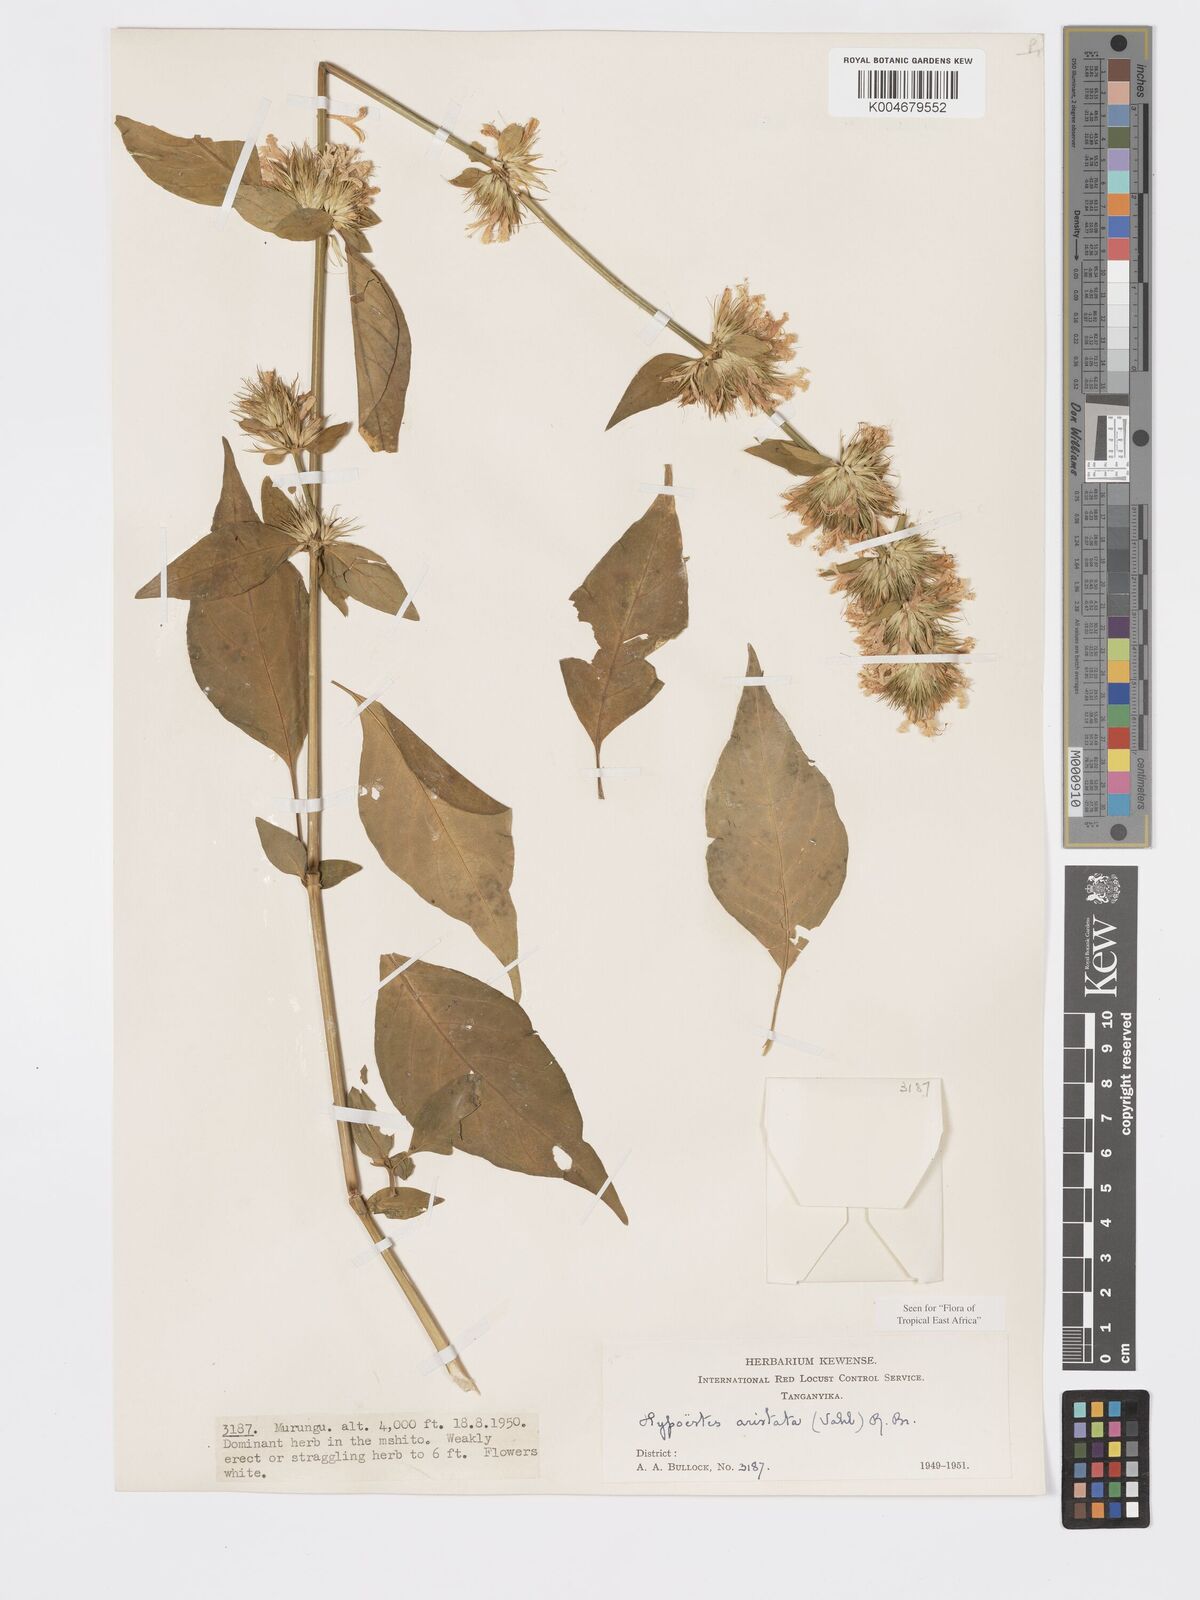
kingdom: Plantae
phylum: Tracheophyta
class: Magnoliopsida
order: Lamiales
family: Acanthaceae
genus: Hypoestes
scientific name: Hypoestes
